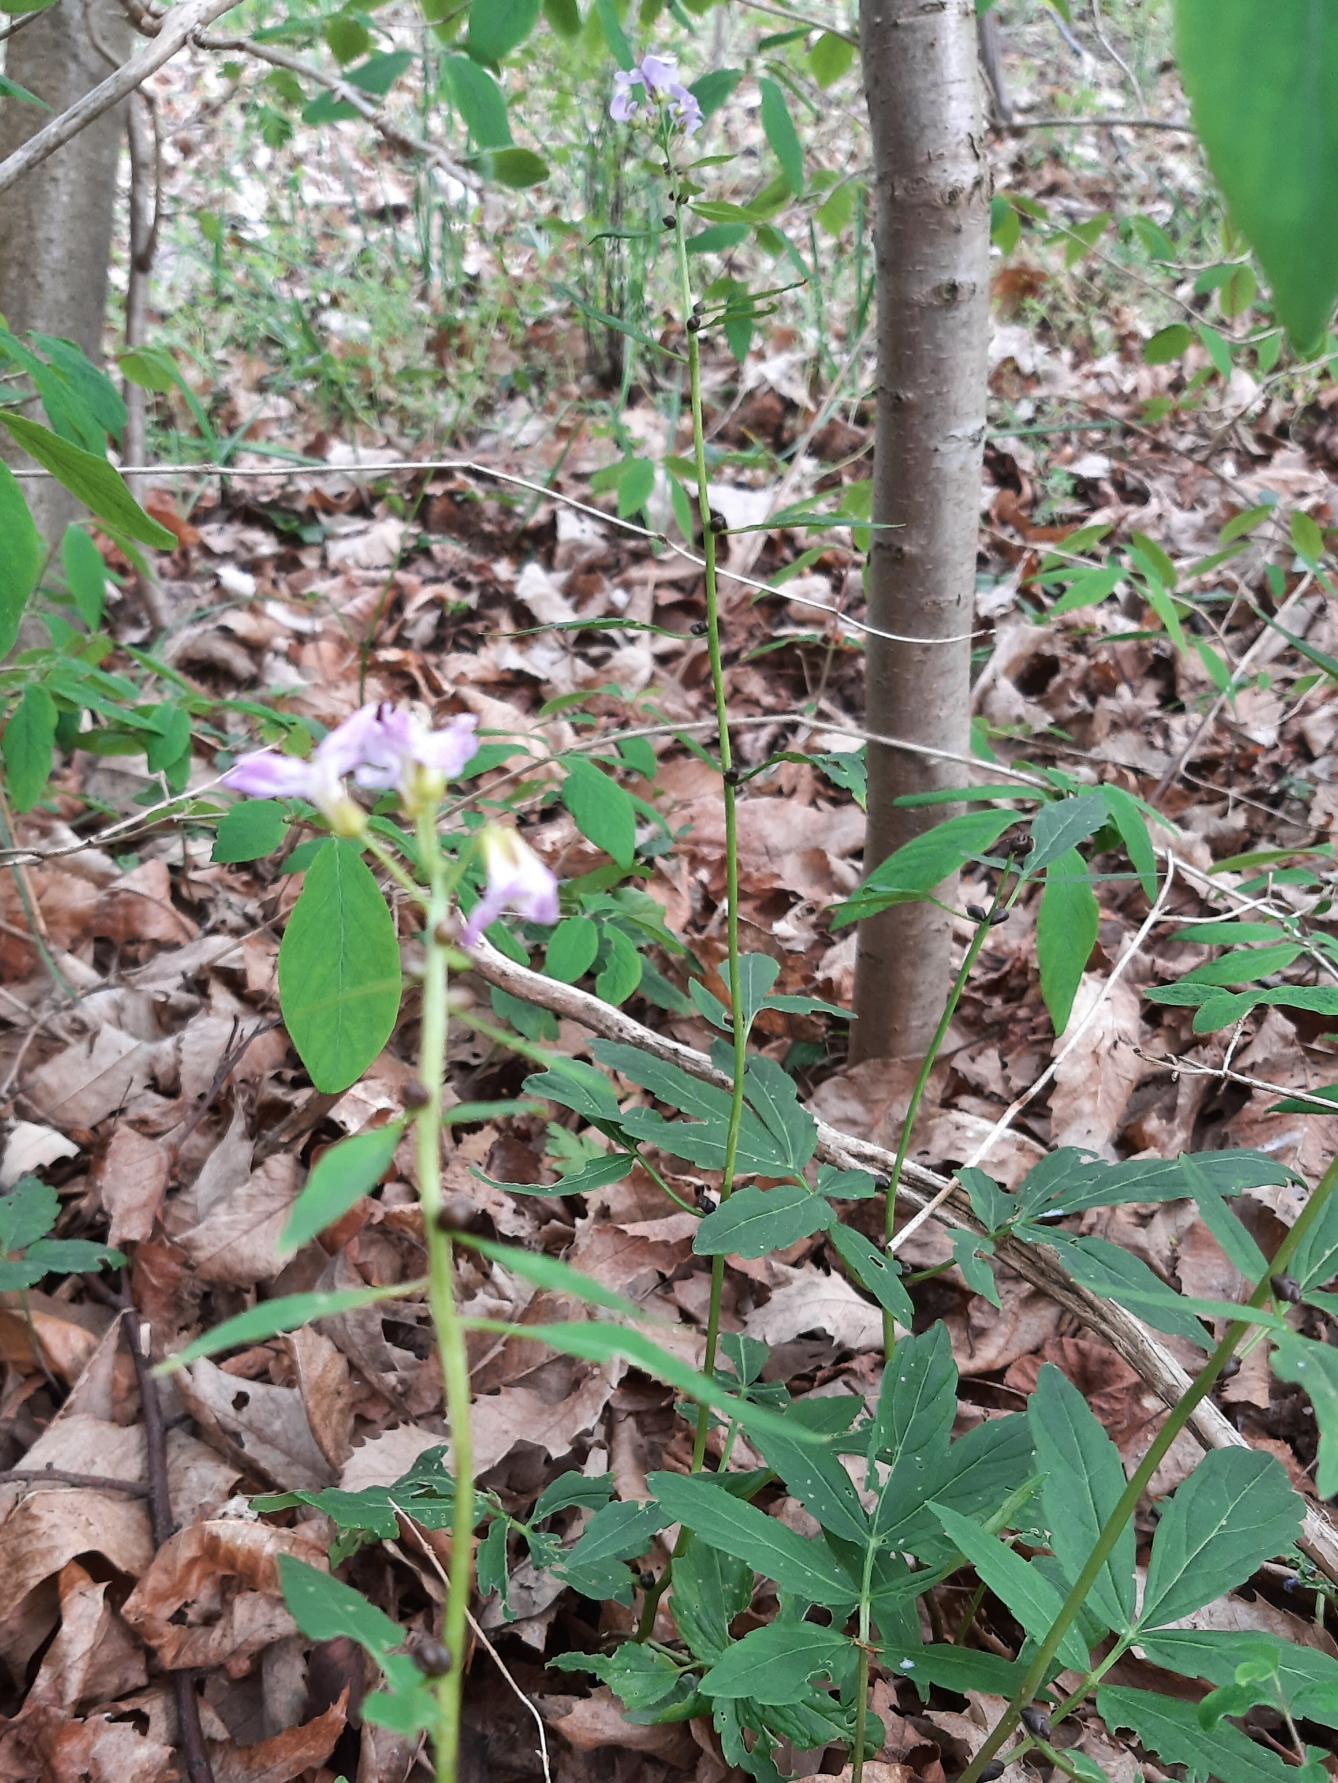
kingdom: Plantae
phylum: Tracheophyta
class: Magnoliopsida
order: Brassicales
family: Brassicaceae
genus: Cardamine
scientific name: Cardamine bulbifera
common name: Tandrod
